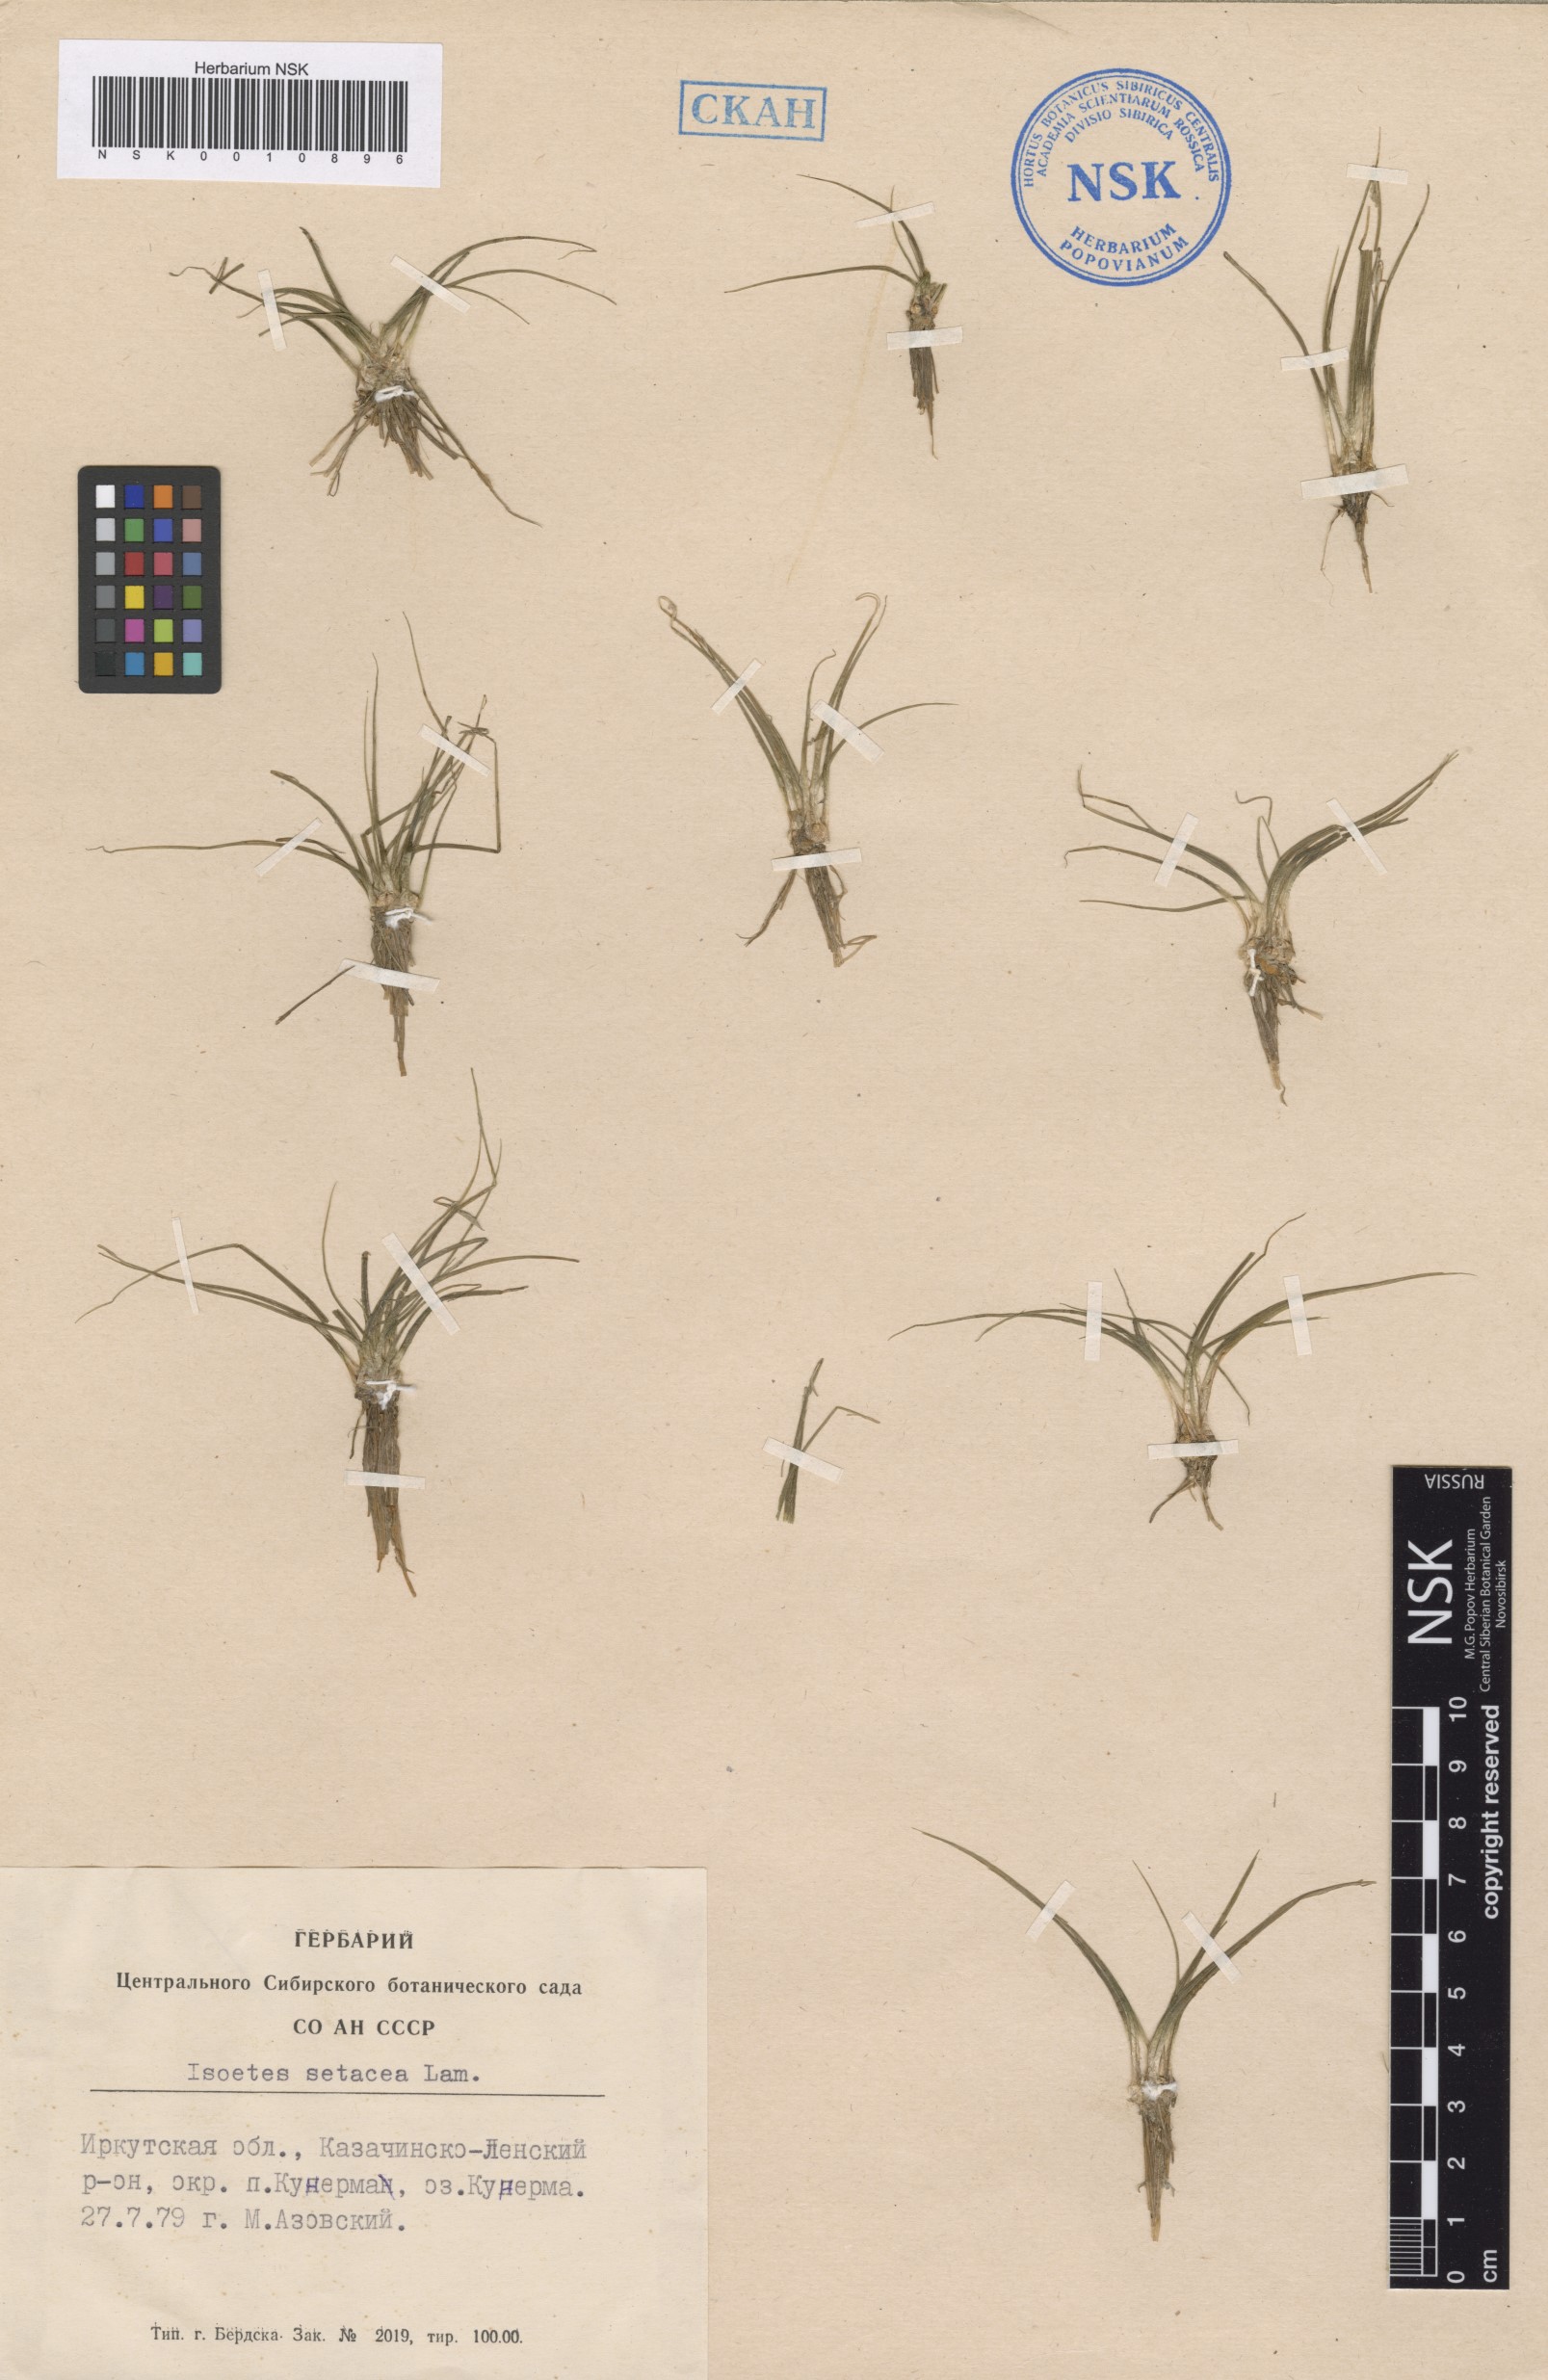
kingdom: Plantae
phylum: Tracheophyta
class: Lycopodiopsida
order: Isoetales
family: Isoetaceae
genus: Isoetes
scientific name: Isoetes lacustris
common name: Common quillwort
